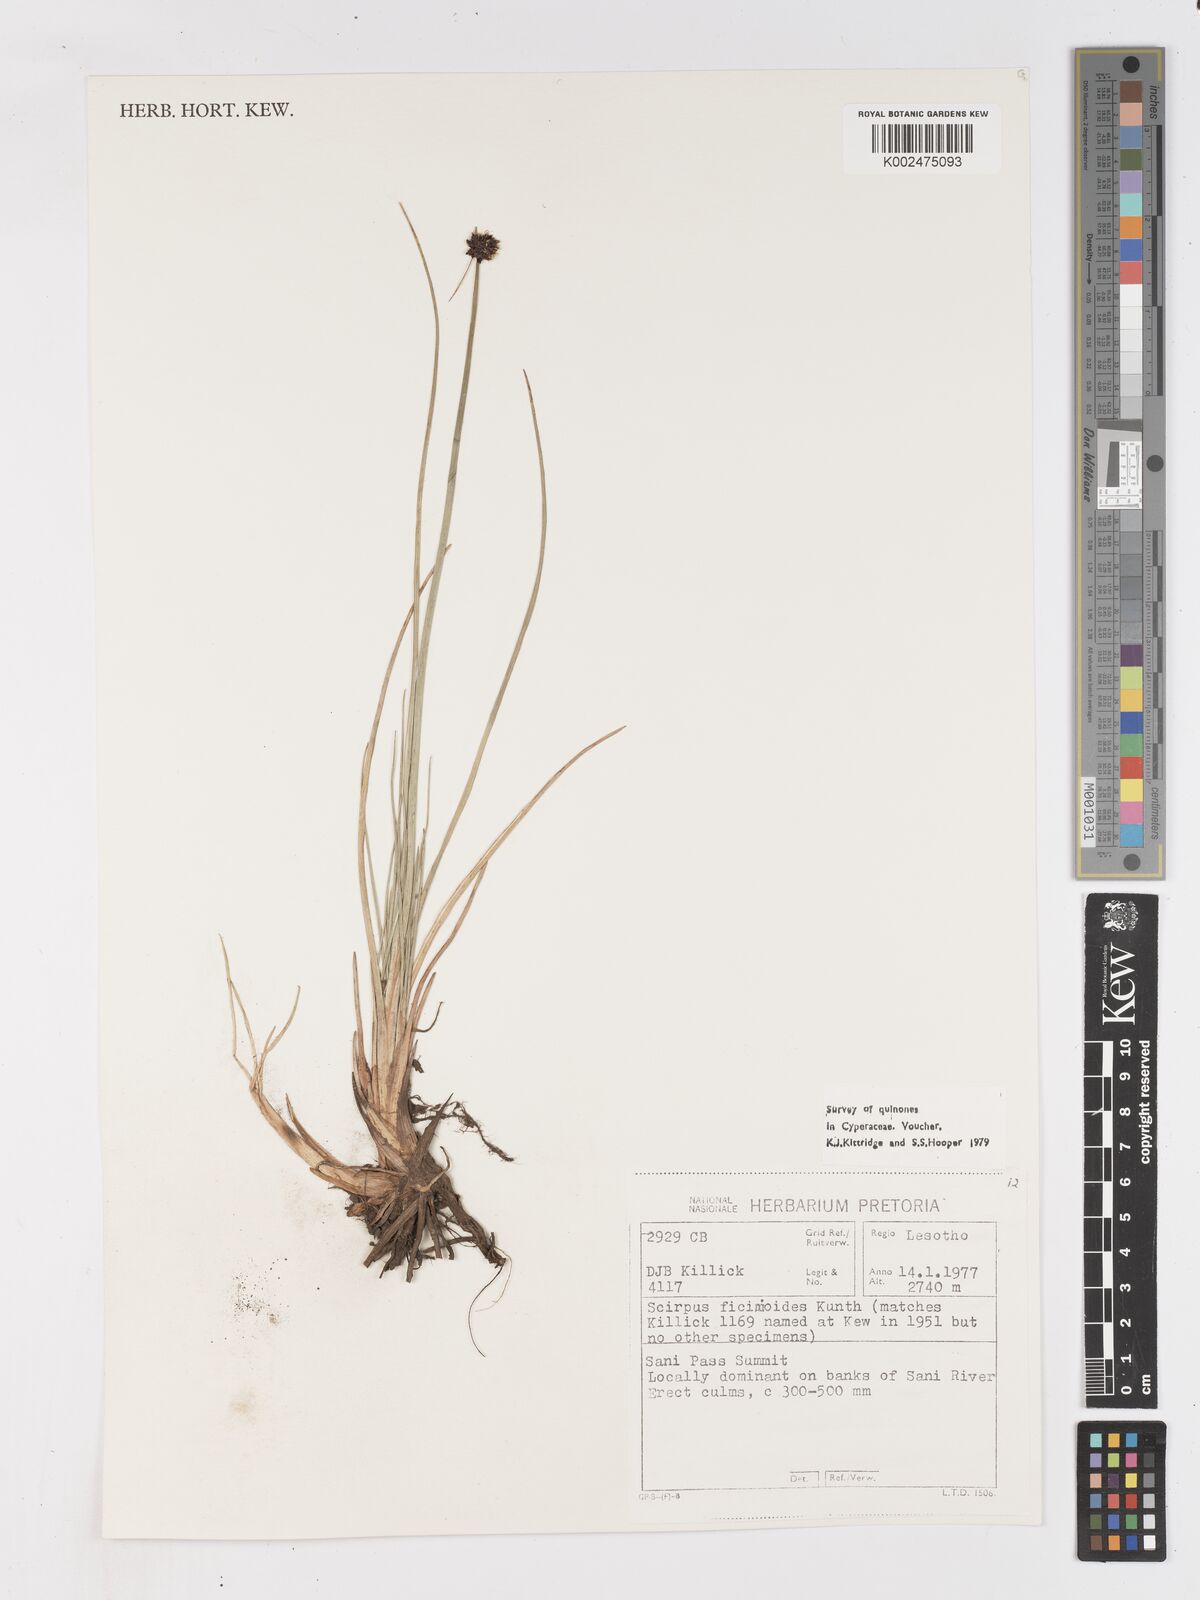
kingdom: Plantae
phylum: Tracheophyta
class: Liliopsida
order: Poales
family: Cyperaceae
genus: Ficinia
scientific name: Ficinia
